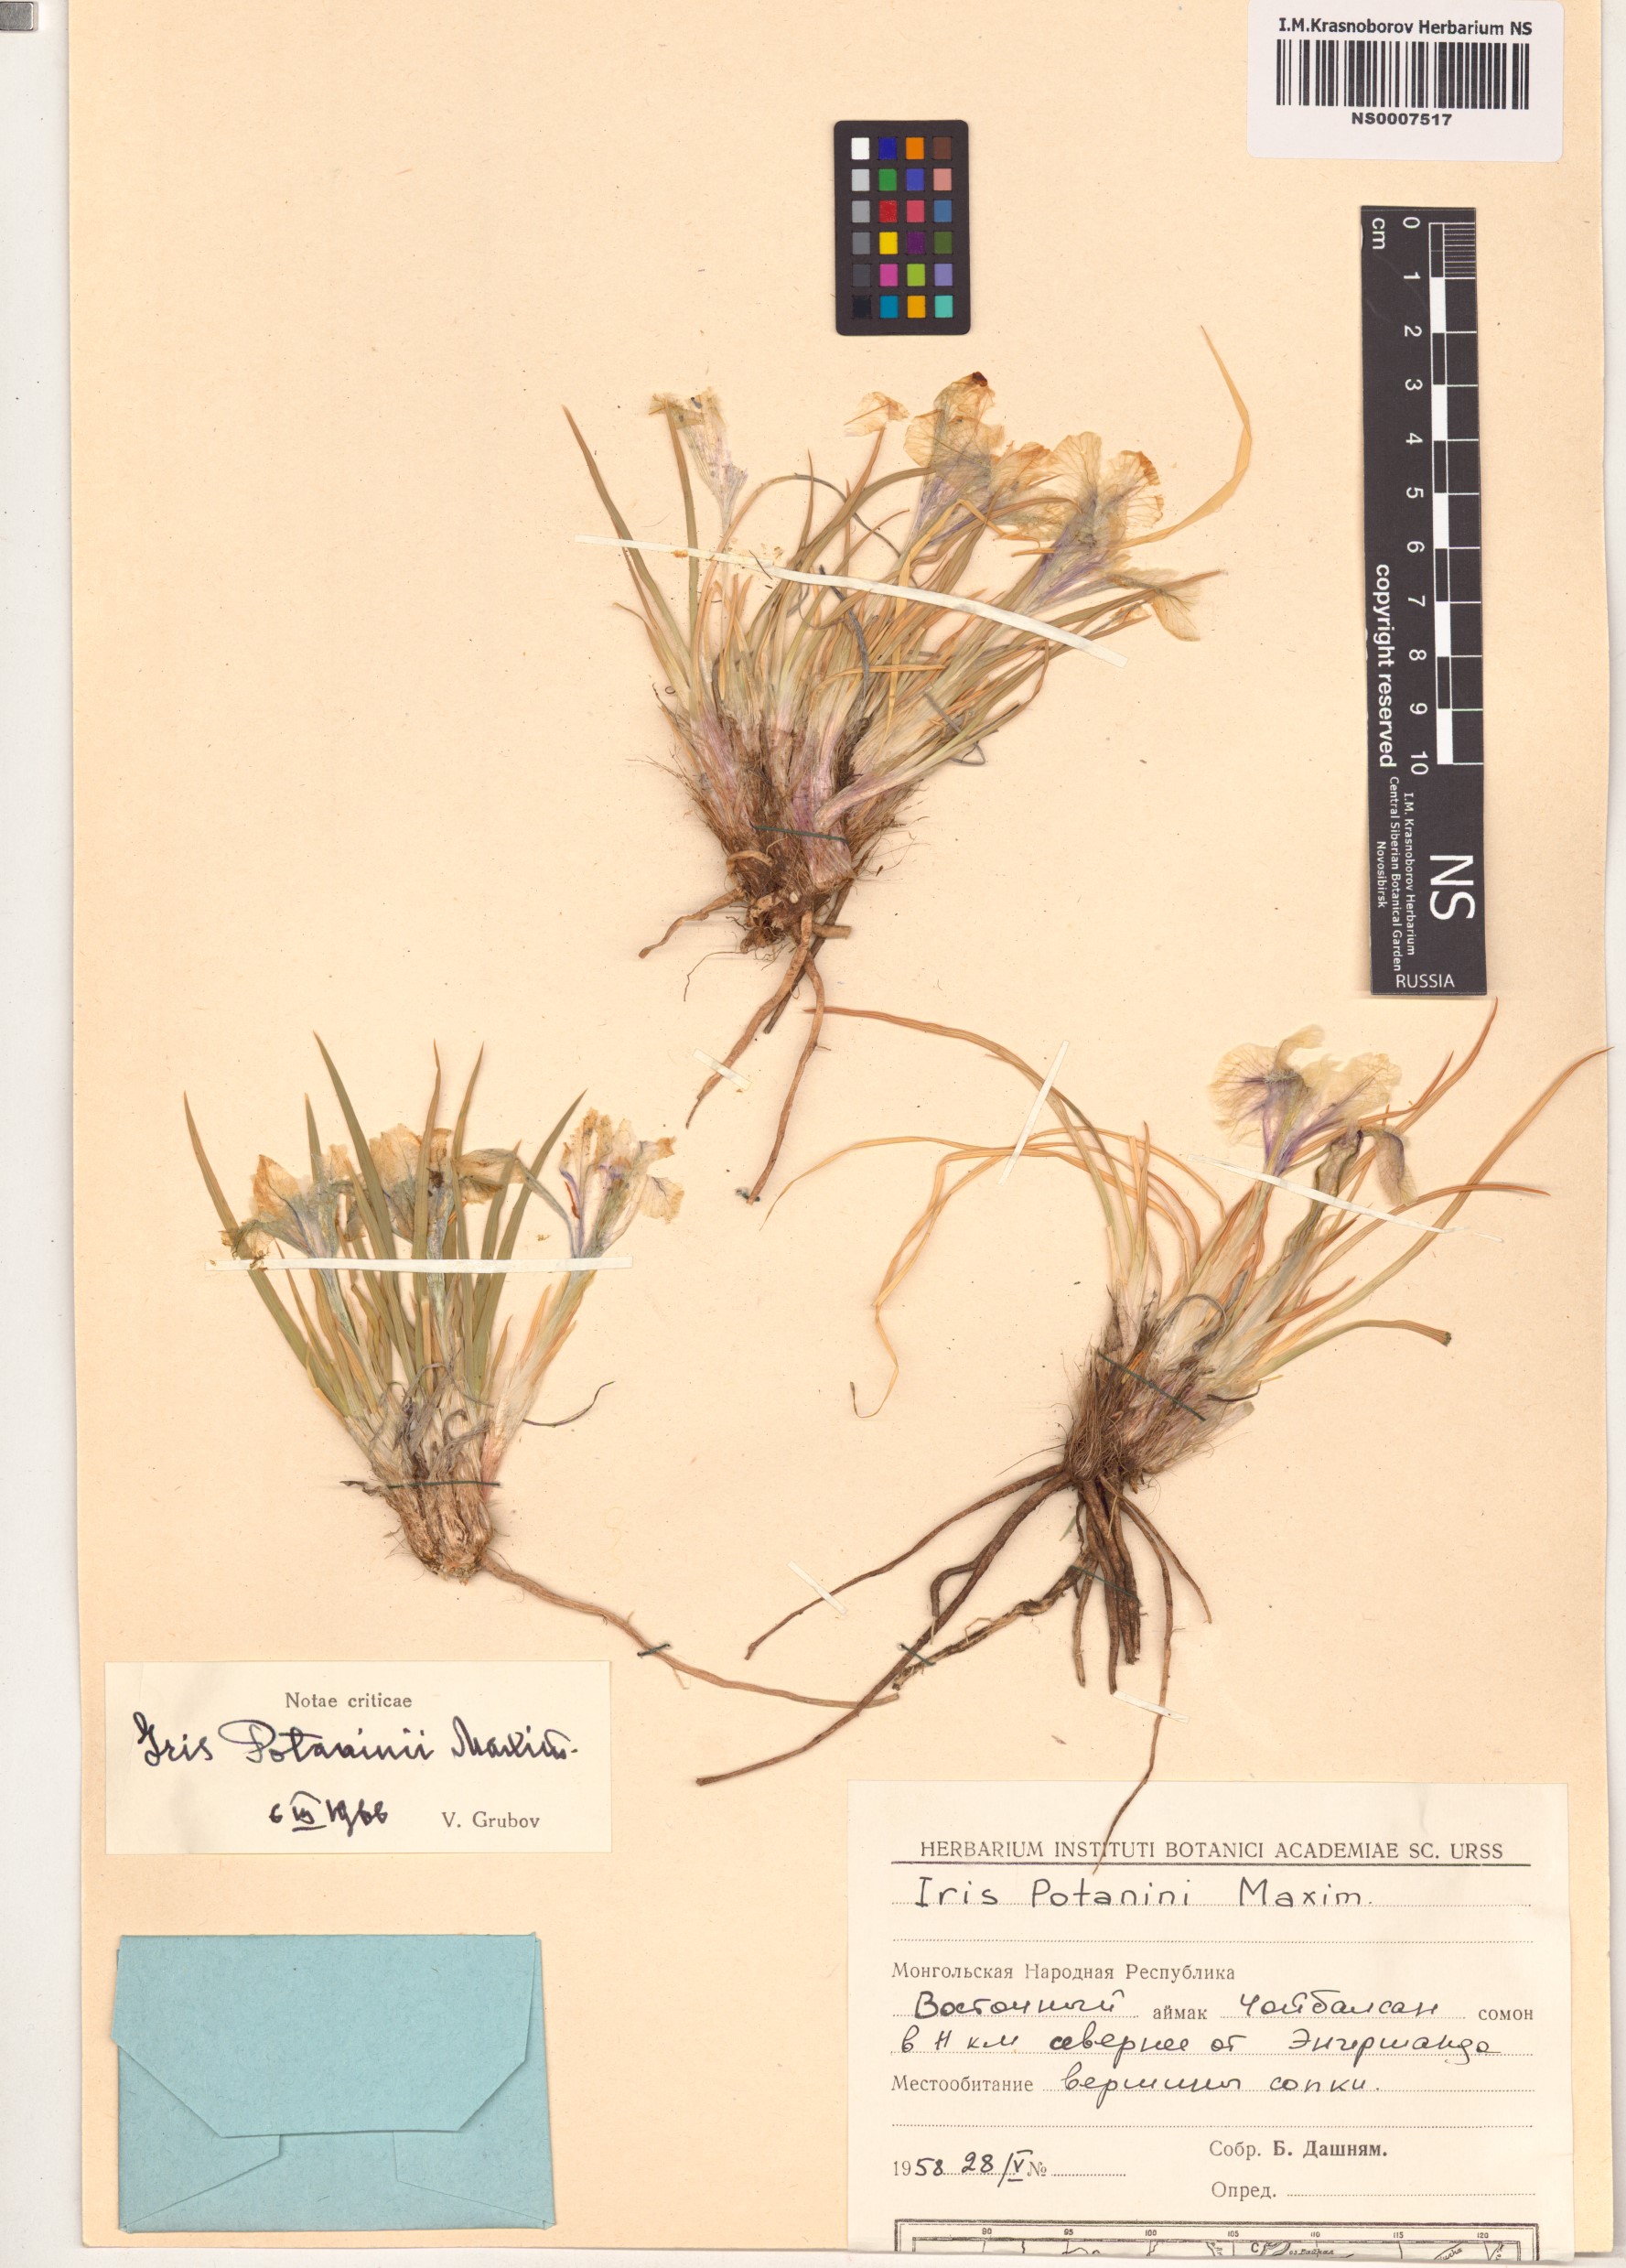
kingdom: Plantae
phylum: Tracheophyta
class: Liliopsida
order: Asparagales
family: Iridaceae
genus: Iris
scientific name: Iris potaninii
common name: Curl-sheath iris
